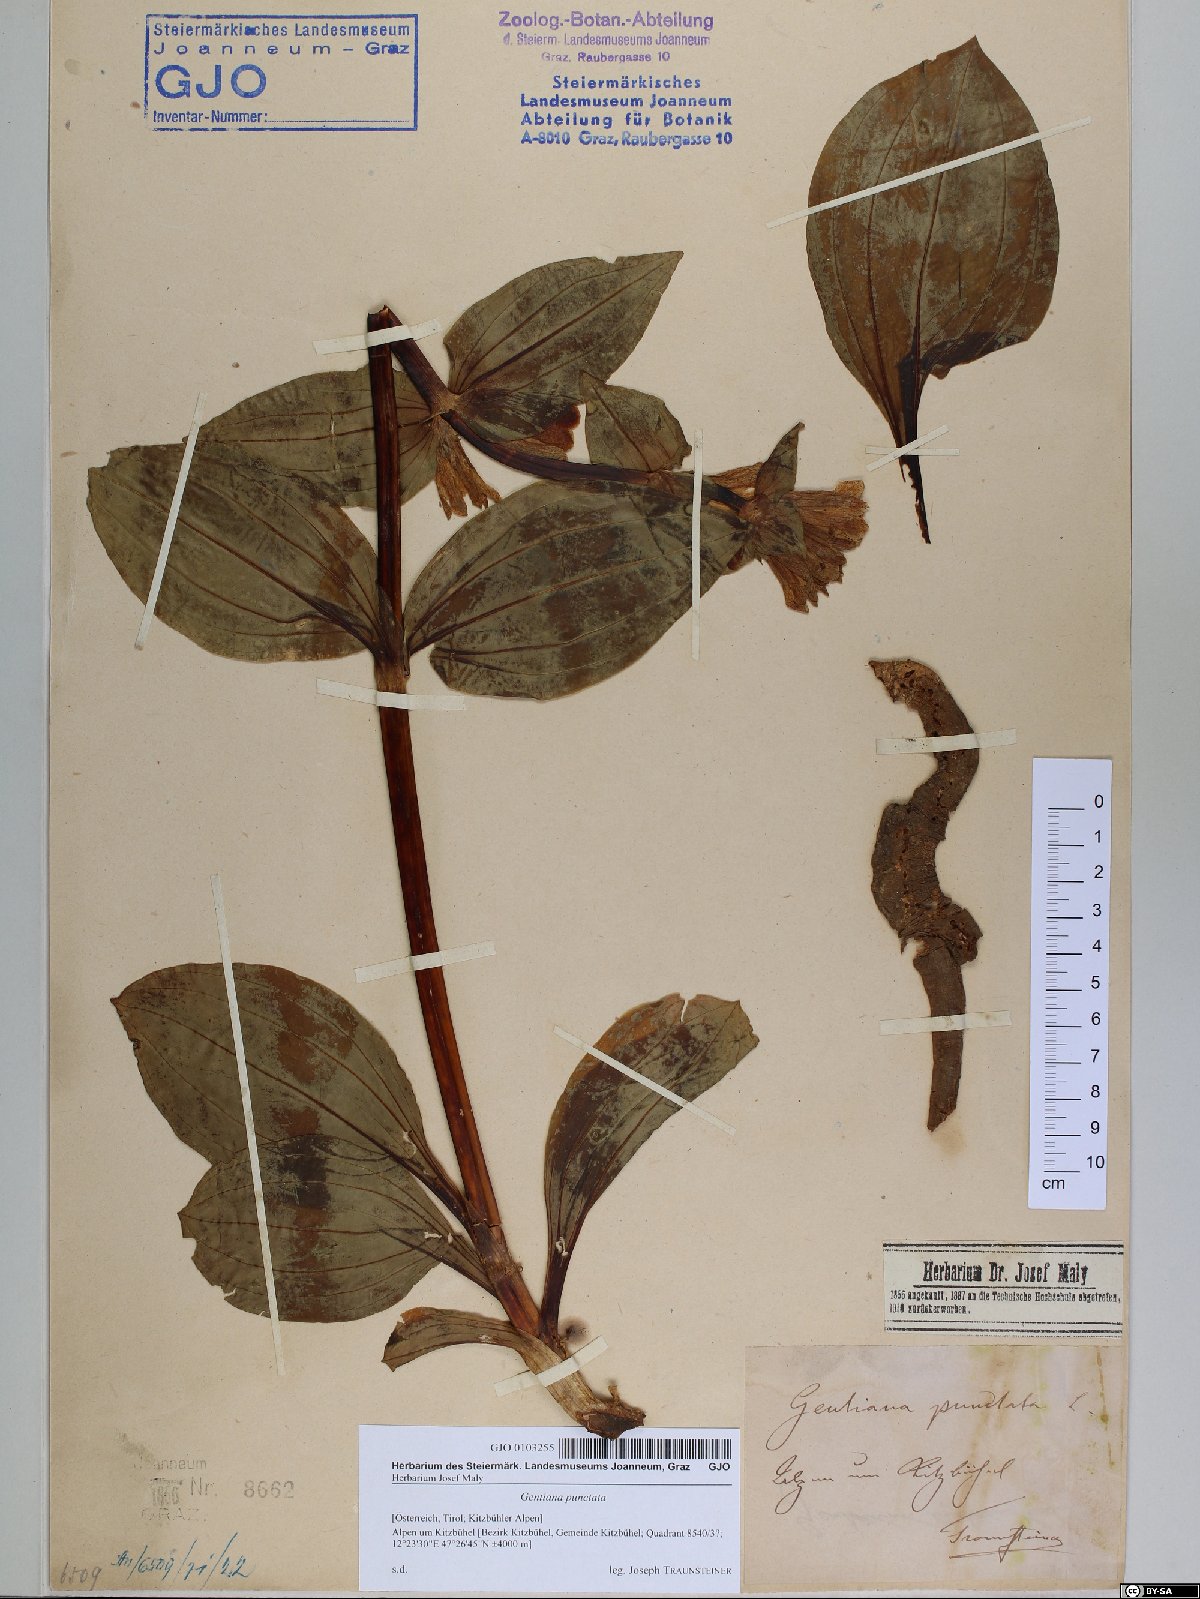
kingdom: Plantae
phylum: Tracheophyta
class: Magnoliopsida
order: Gentianales
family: Gentianaceae
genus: Gentiana
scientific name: Gentiana punctata
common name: Spotted gentian
